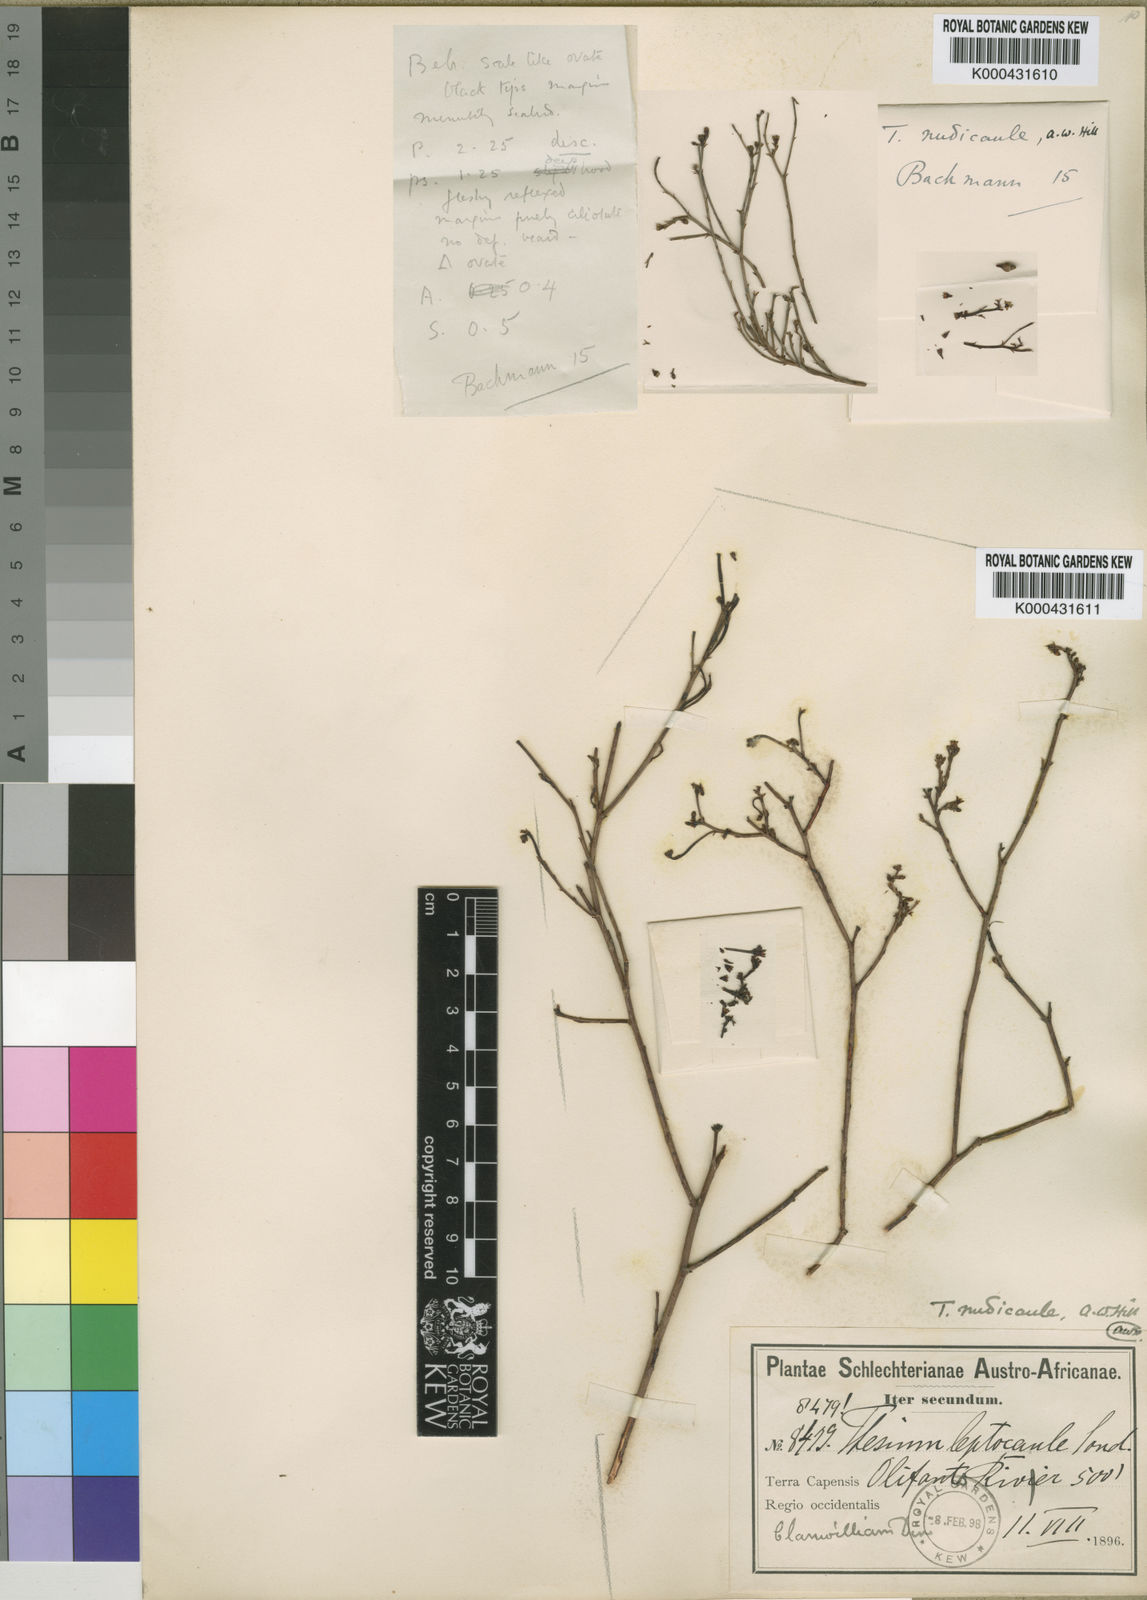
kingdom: Plantae
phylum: Tracheophyta
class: Magnoliopsida
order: Santalales
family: Thesiaceae
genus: Thesium
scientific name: Thesium nudicaule
